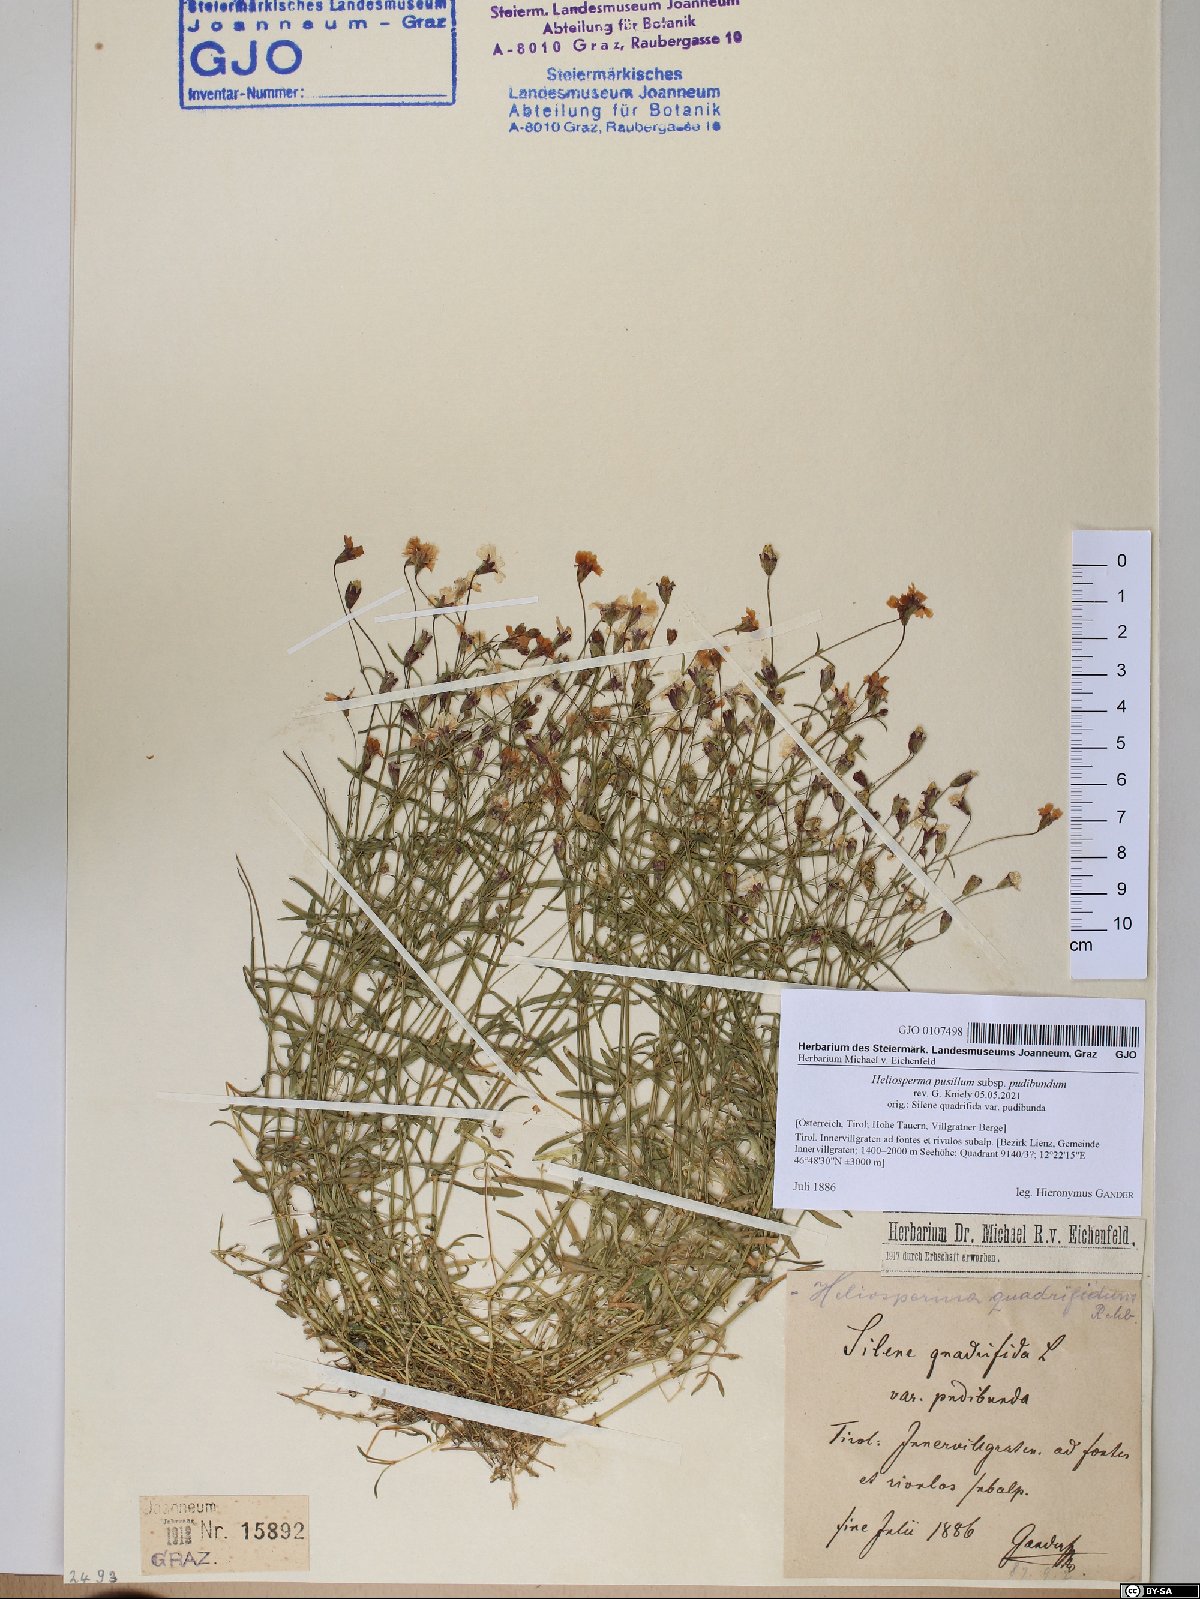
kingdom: Plantae
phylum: Tracheophyta
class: Magnoliopsida
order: Caryophyllales
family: Caryophyllaceae
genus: Heliosperma
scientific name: Heliosperma pudibundum
